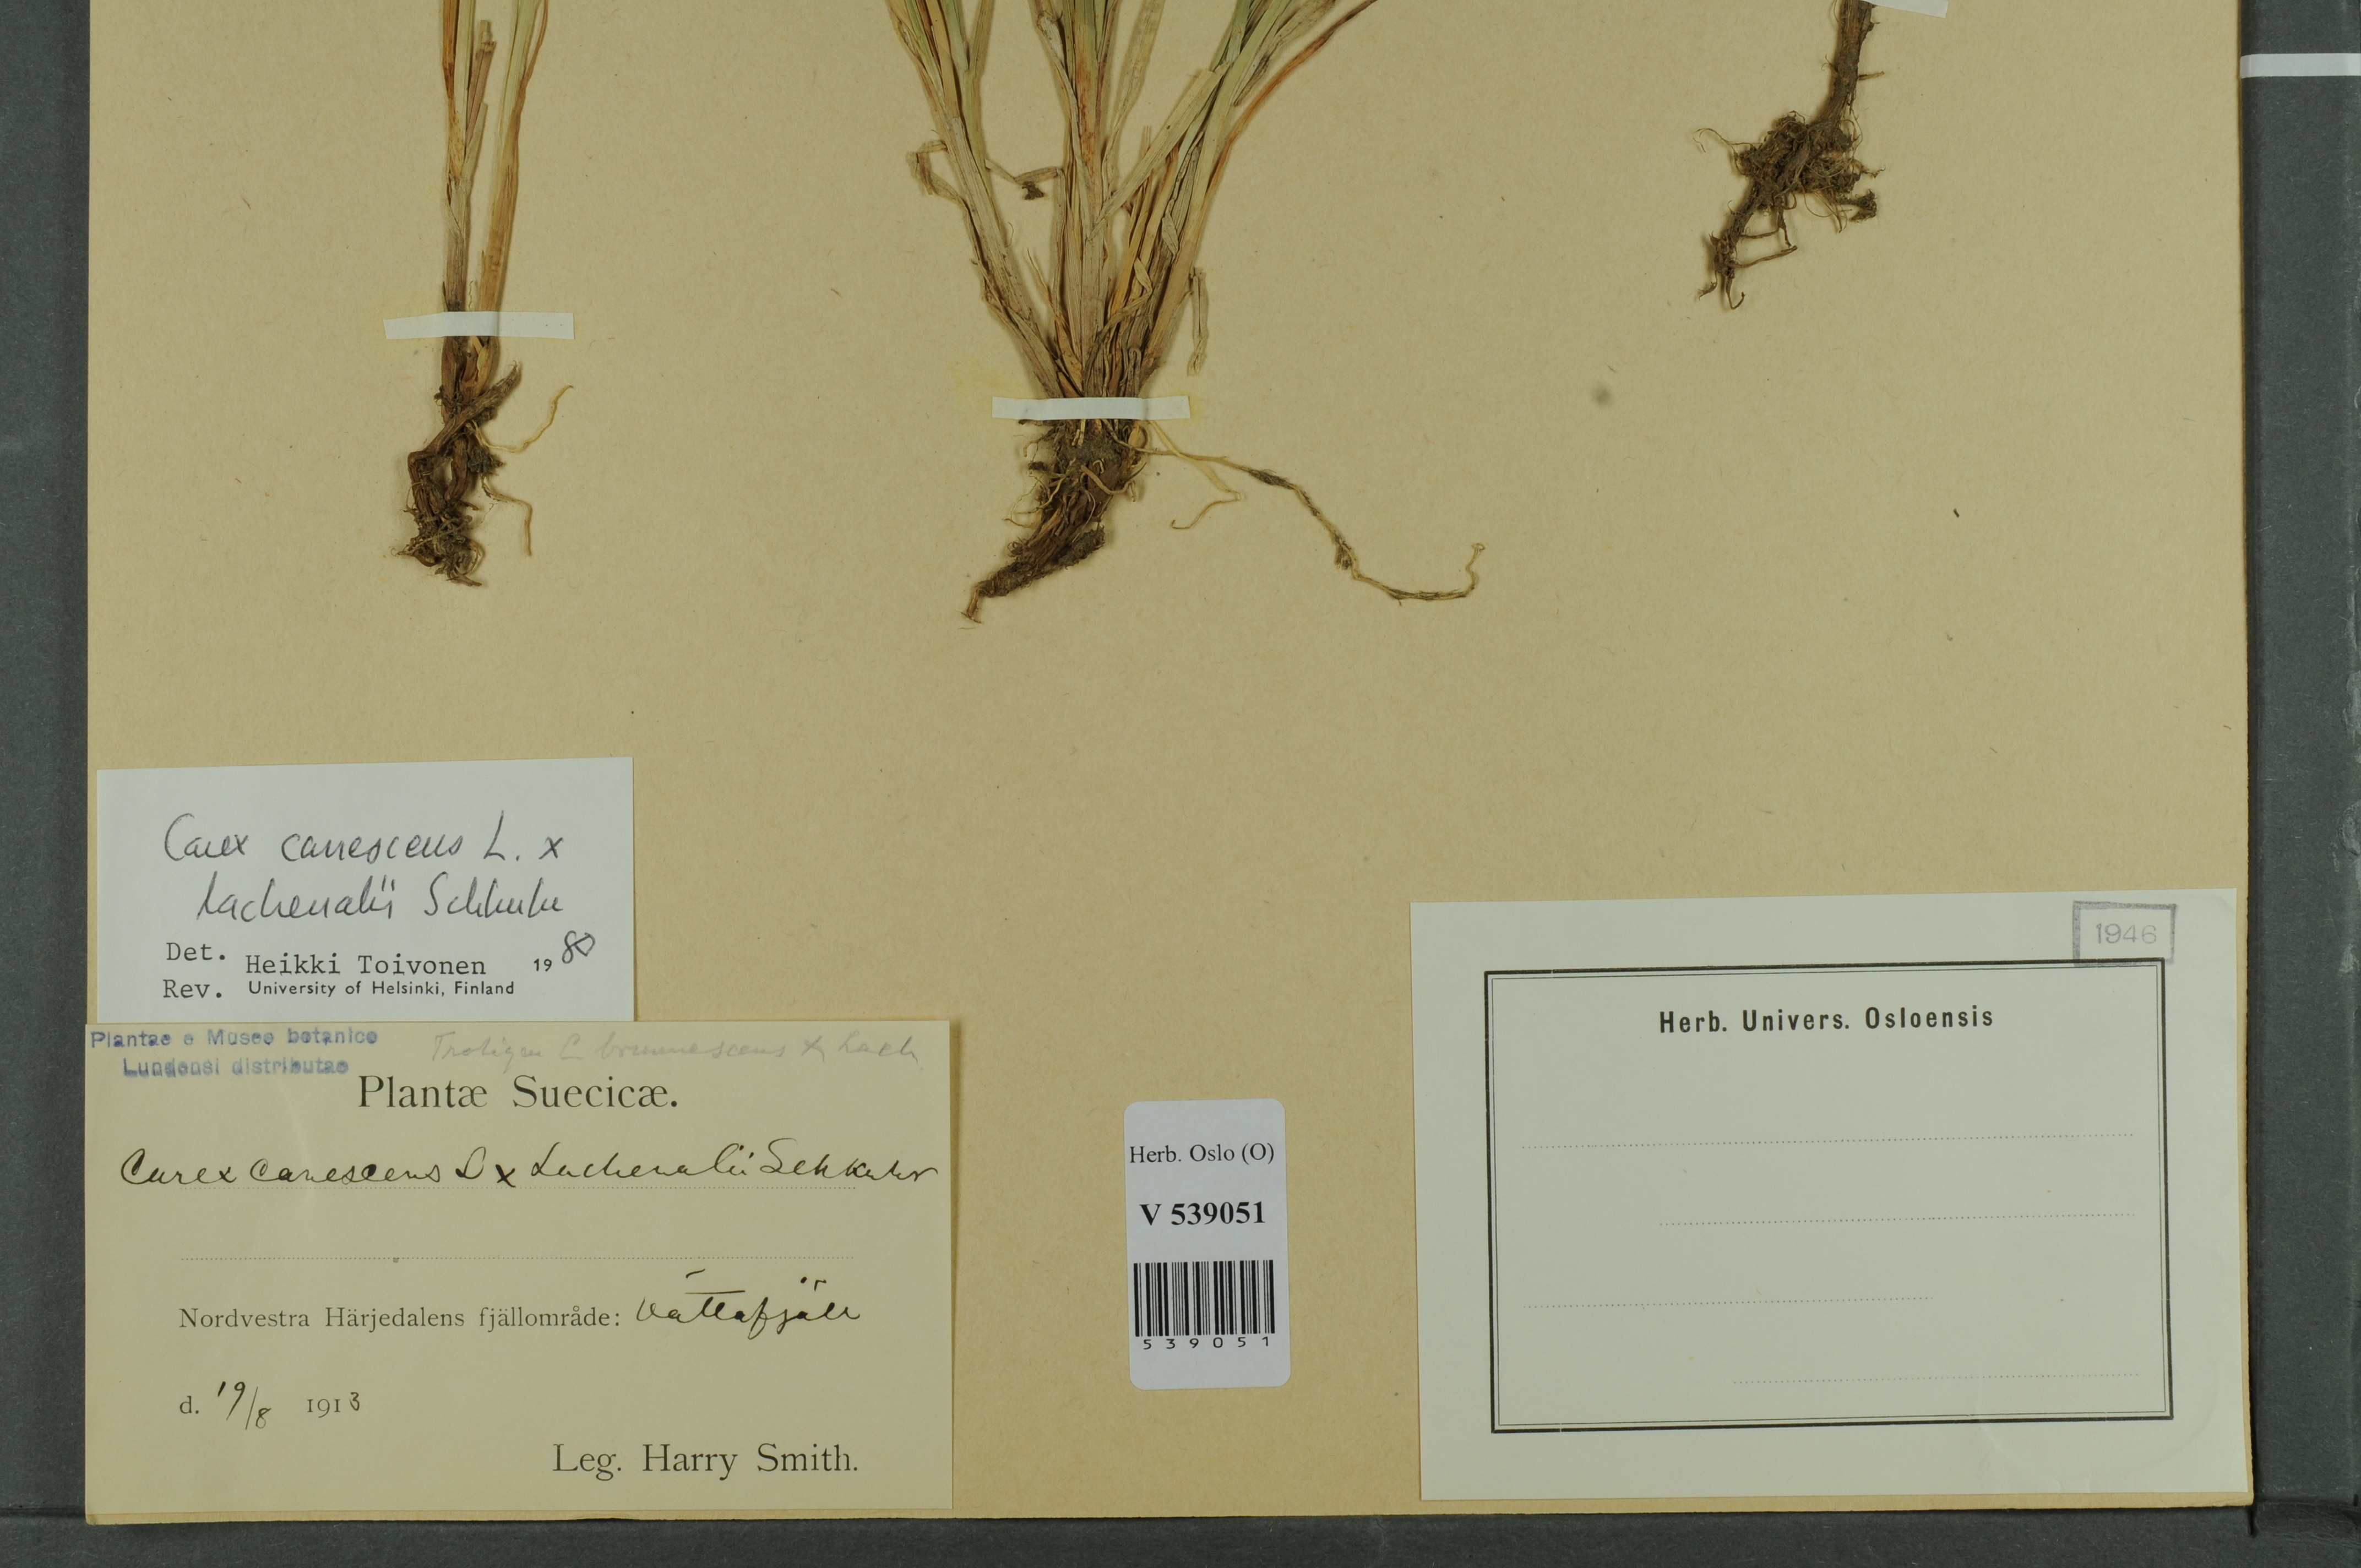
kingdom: Plantae
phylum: Tracheophyta
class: Liliopsida
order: Poales
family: Cyperaceae
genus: Carex
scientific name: Carex
